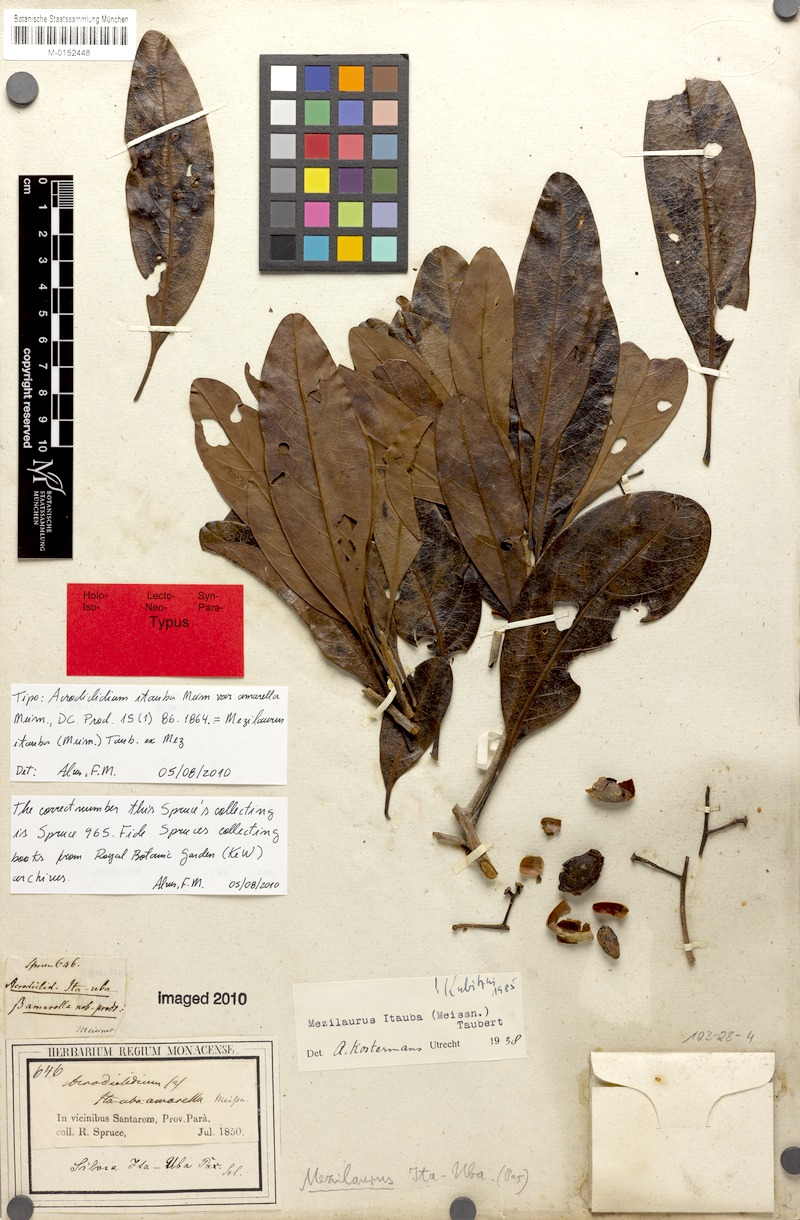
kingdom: Plantae
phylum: Tracheophyta
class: Magnoliopsida
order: Laurales
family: Lauraceae
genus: Mezilaurus
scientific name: Mezilaurus ita-uba
